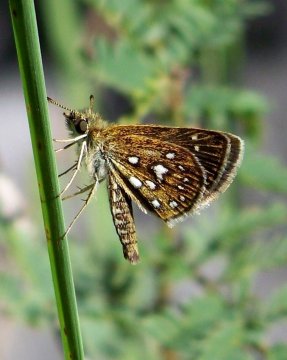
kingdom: Animalia
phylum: Arthropoda
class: Insecta
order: Lepidoptera
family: Hesperiidae
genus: Piruna
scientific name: Piruna aea
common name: Many-spotted Skipperling
